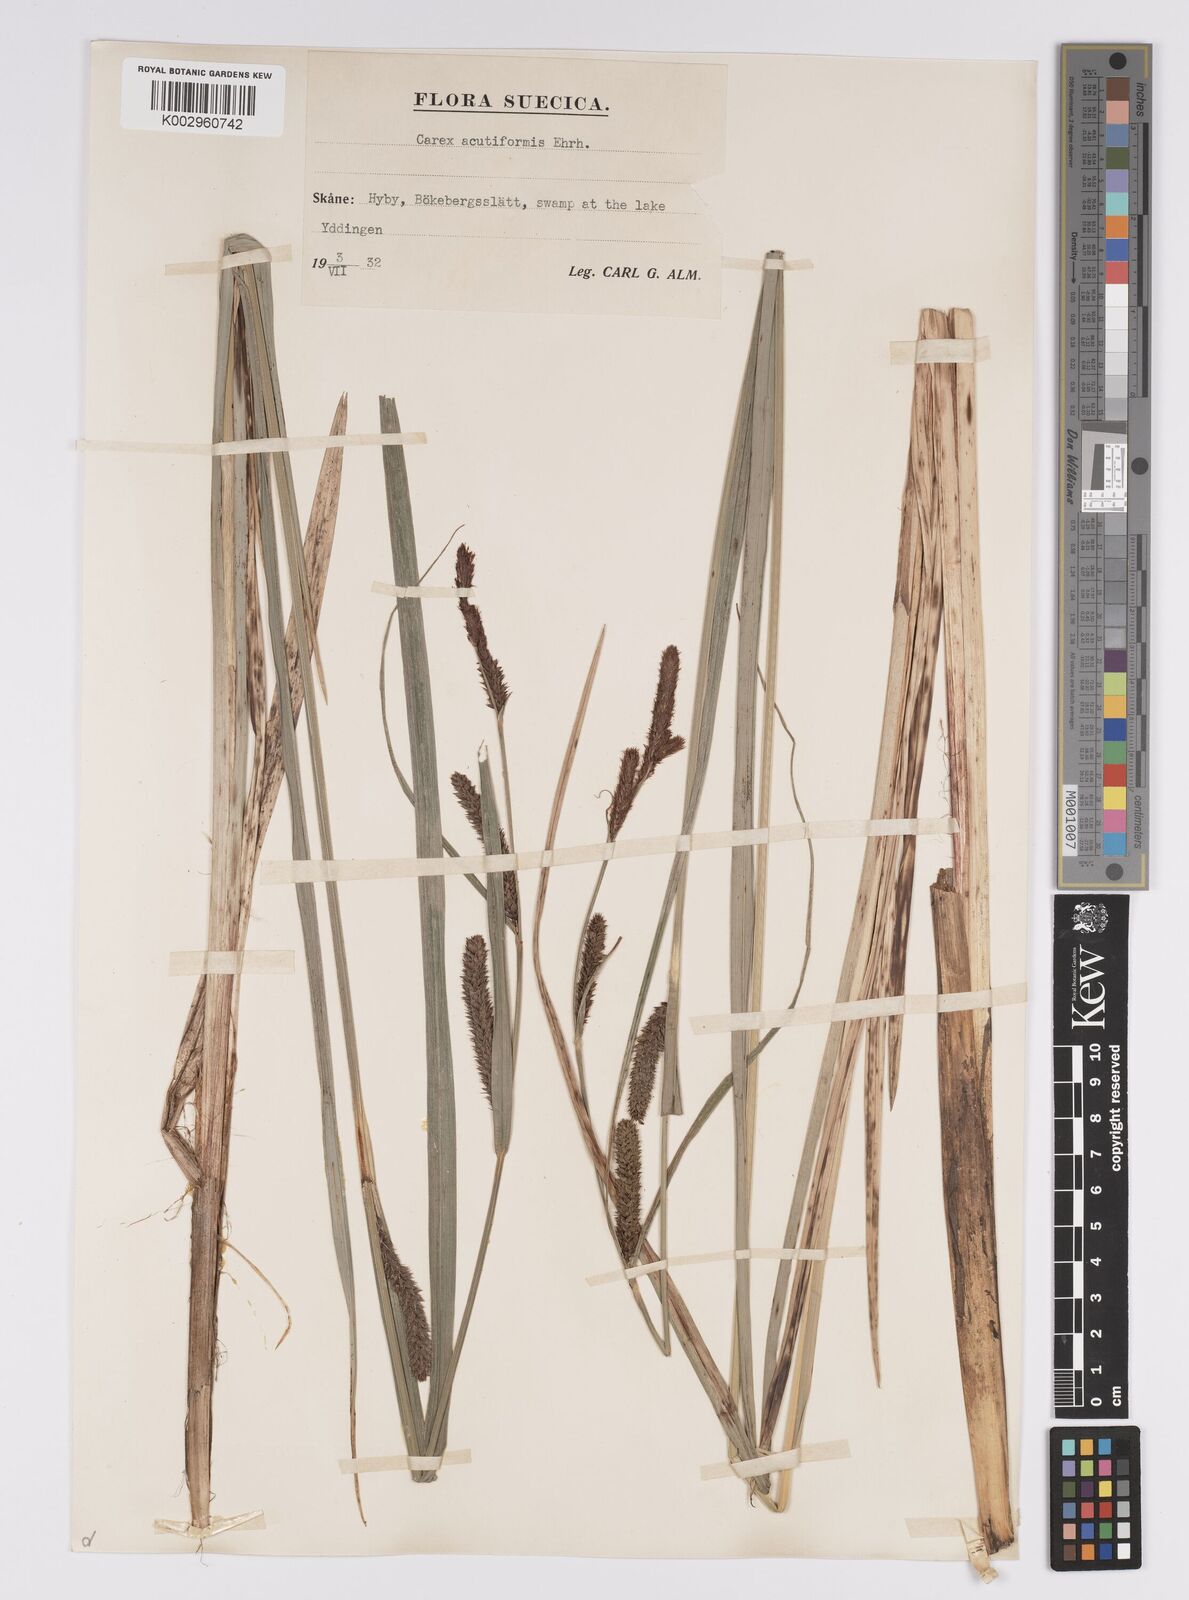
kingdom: Plantae
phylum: Tracheophyta
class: Liliopsida
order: Poales
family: Cyperaceae
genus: Carex
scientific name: Carex acutiformis
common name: Lesser pond-sedge
